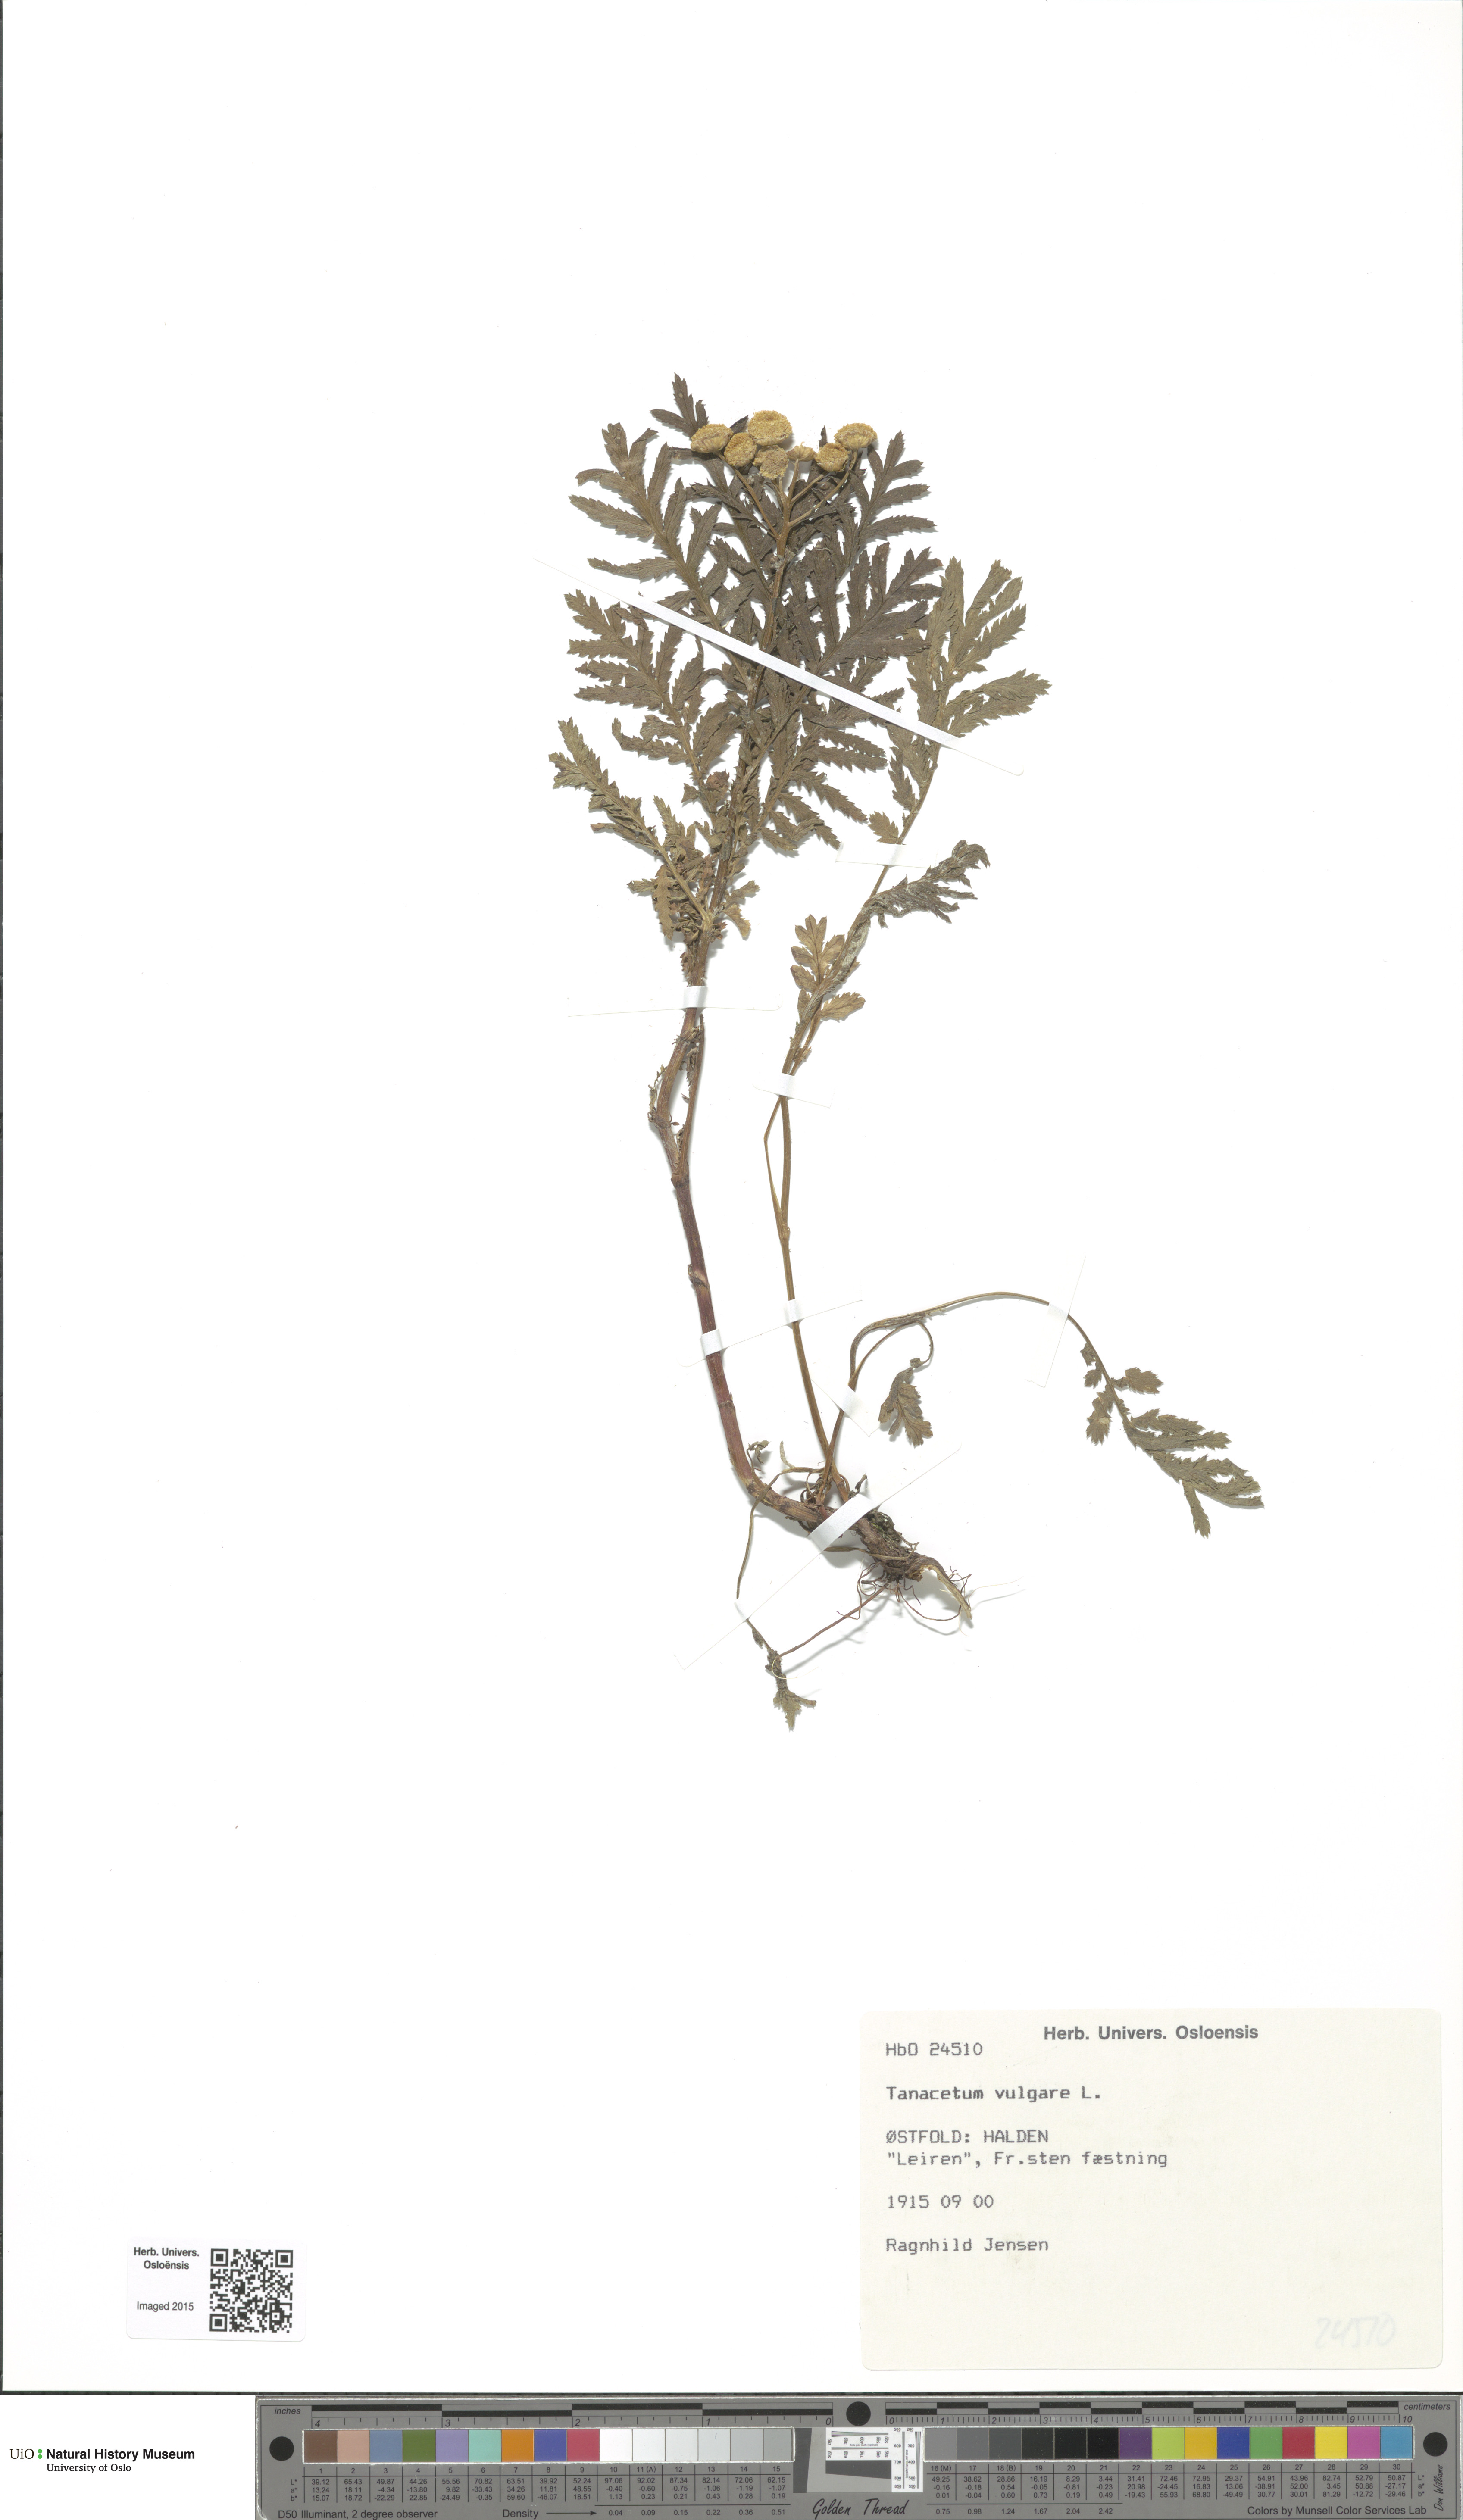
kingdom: Plantae
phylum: Tracheophyta
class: Magnoliopsida
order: Asterales
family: Asteraceae
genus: Tanacetum
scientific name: Tanacetum vulgare
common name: Common tansy
